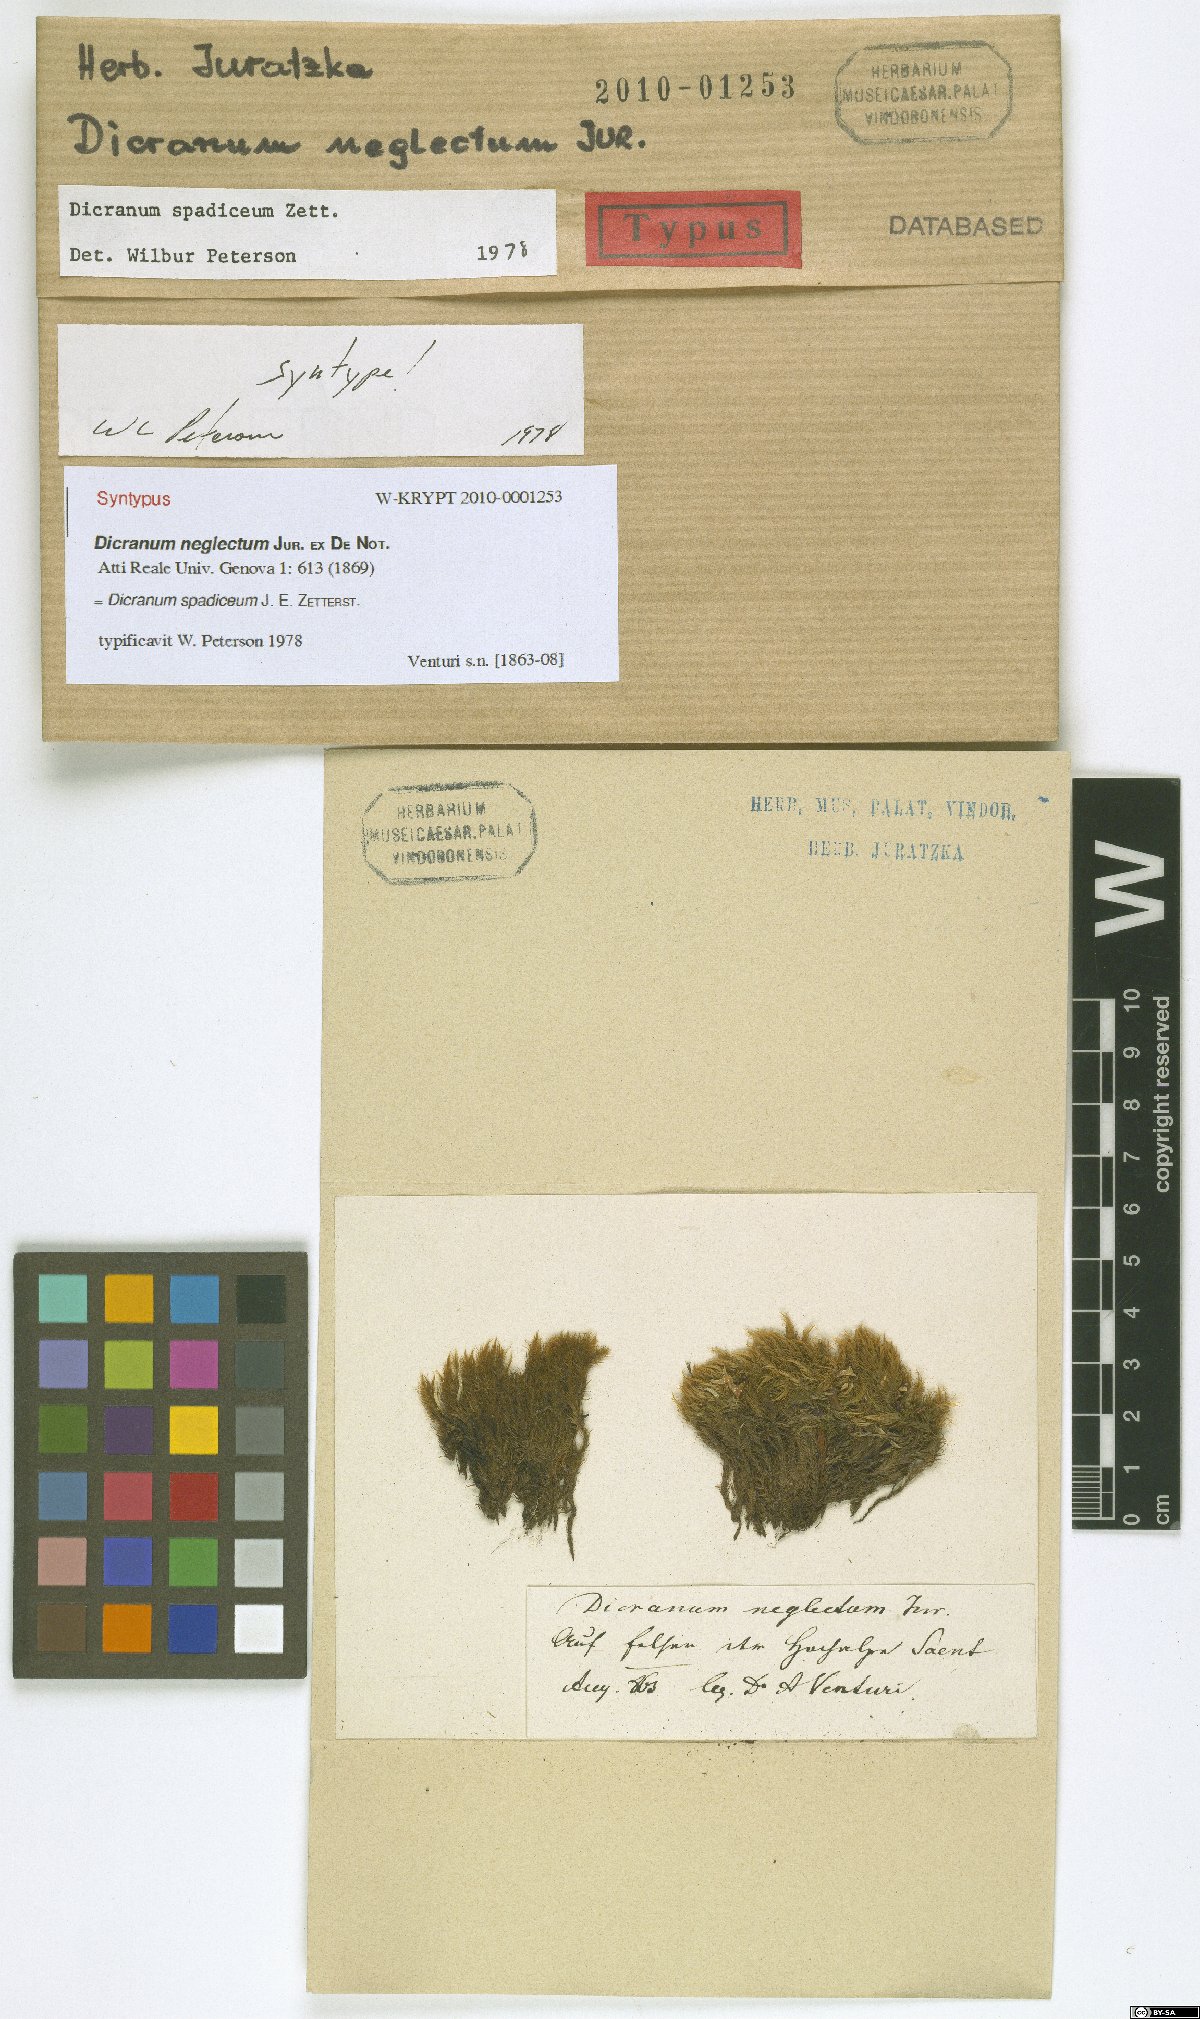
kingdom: Plantae
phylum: Bryophyta
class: Bryopsida
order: Dicranales
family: Dicranaceae
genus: Dicranum
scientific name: Dicranum spadiceum
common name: Confusing broom moss
